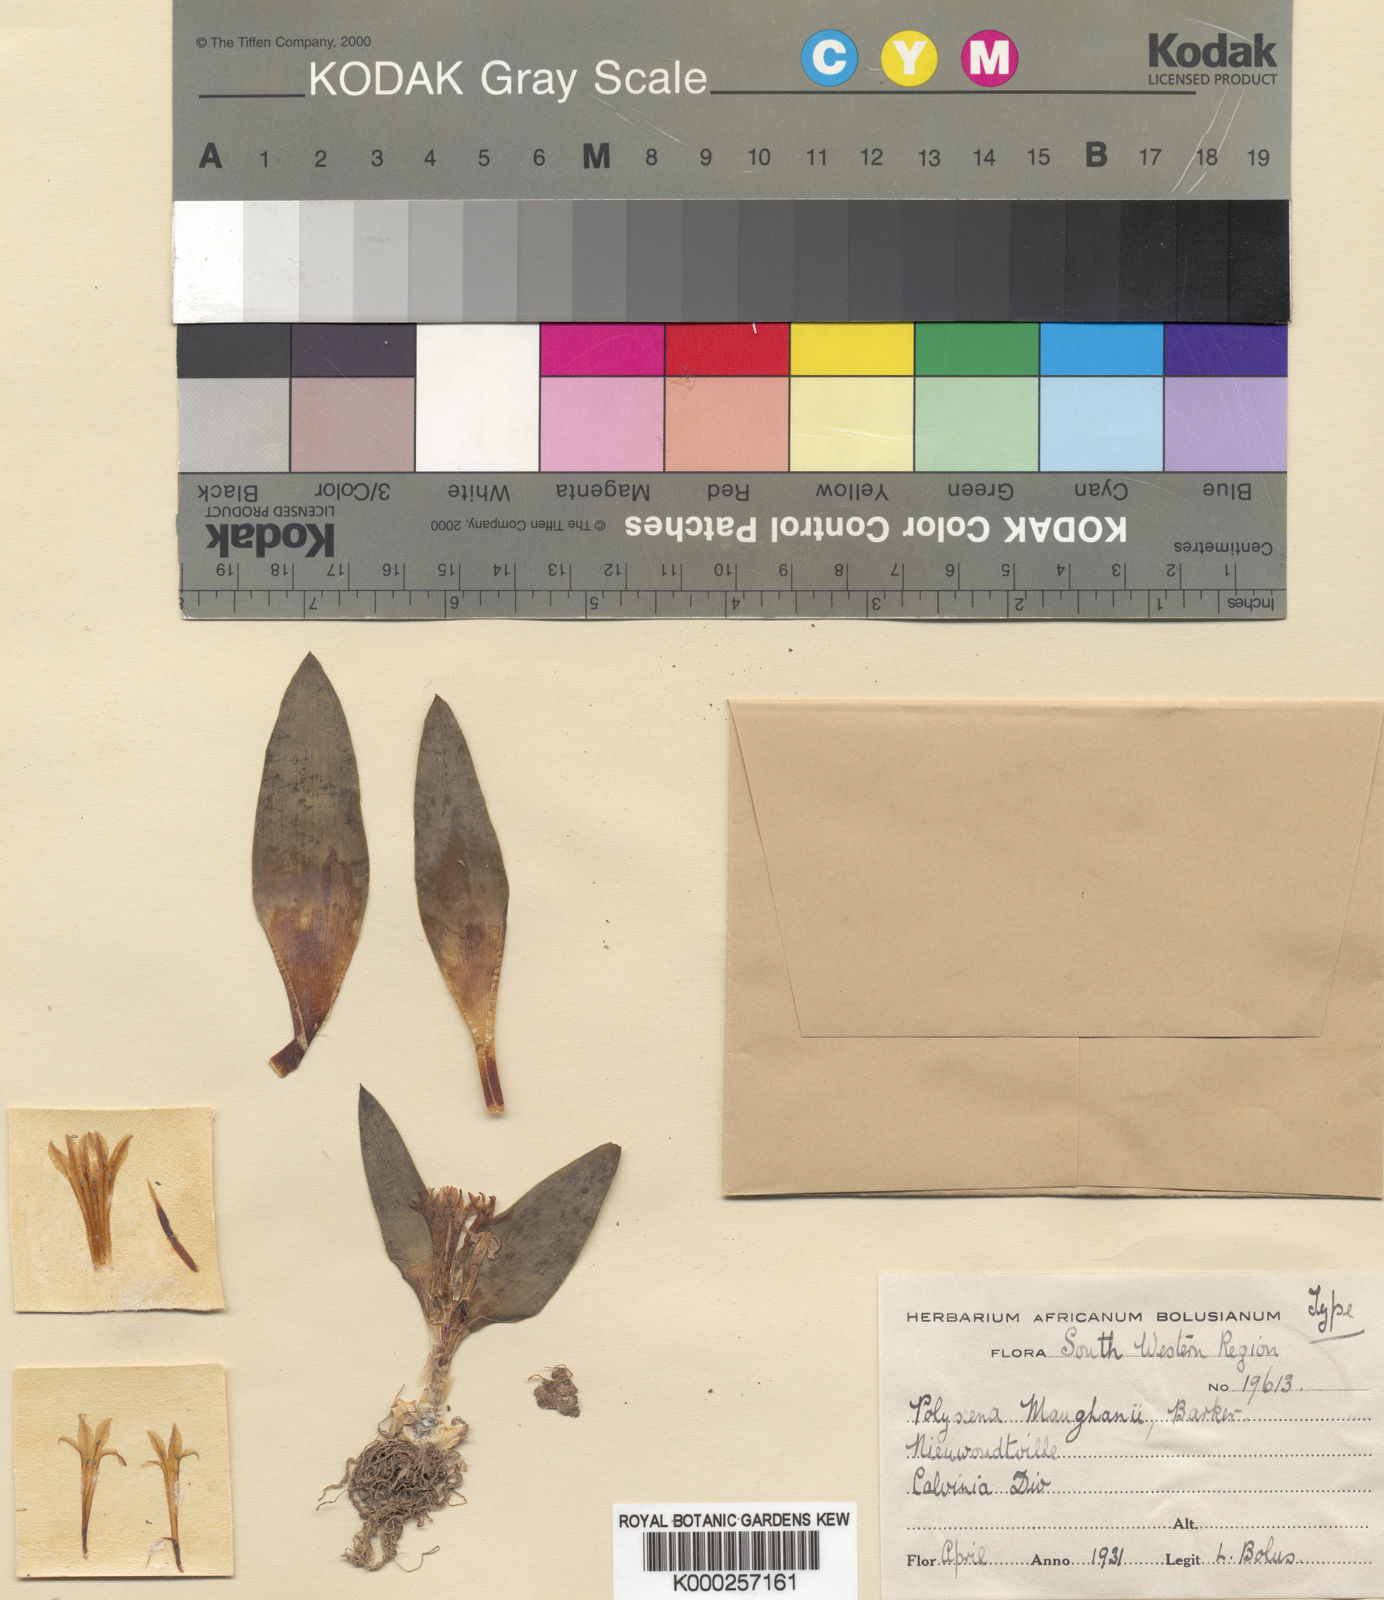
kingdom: Plantae
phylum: Tracheophyta
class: Liliopsida
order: Asparagales
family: Asparagaceae
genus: Lachenalia
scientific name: Lachenalia ensifolia
